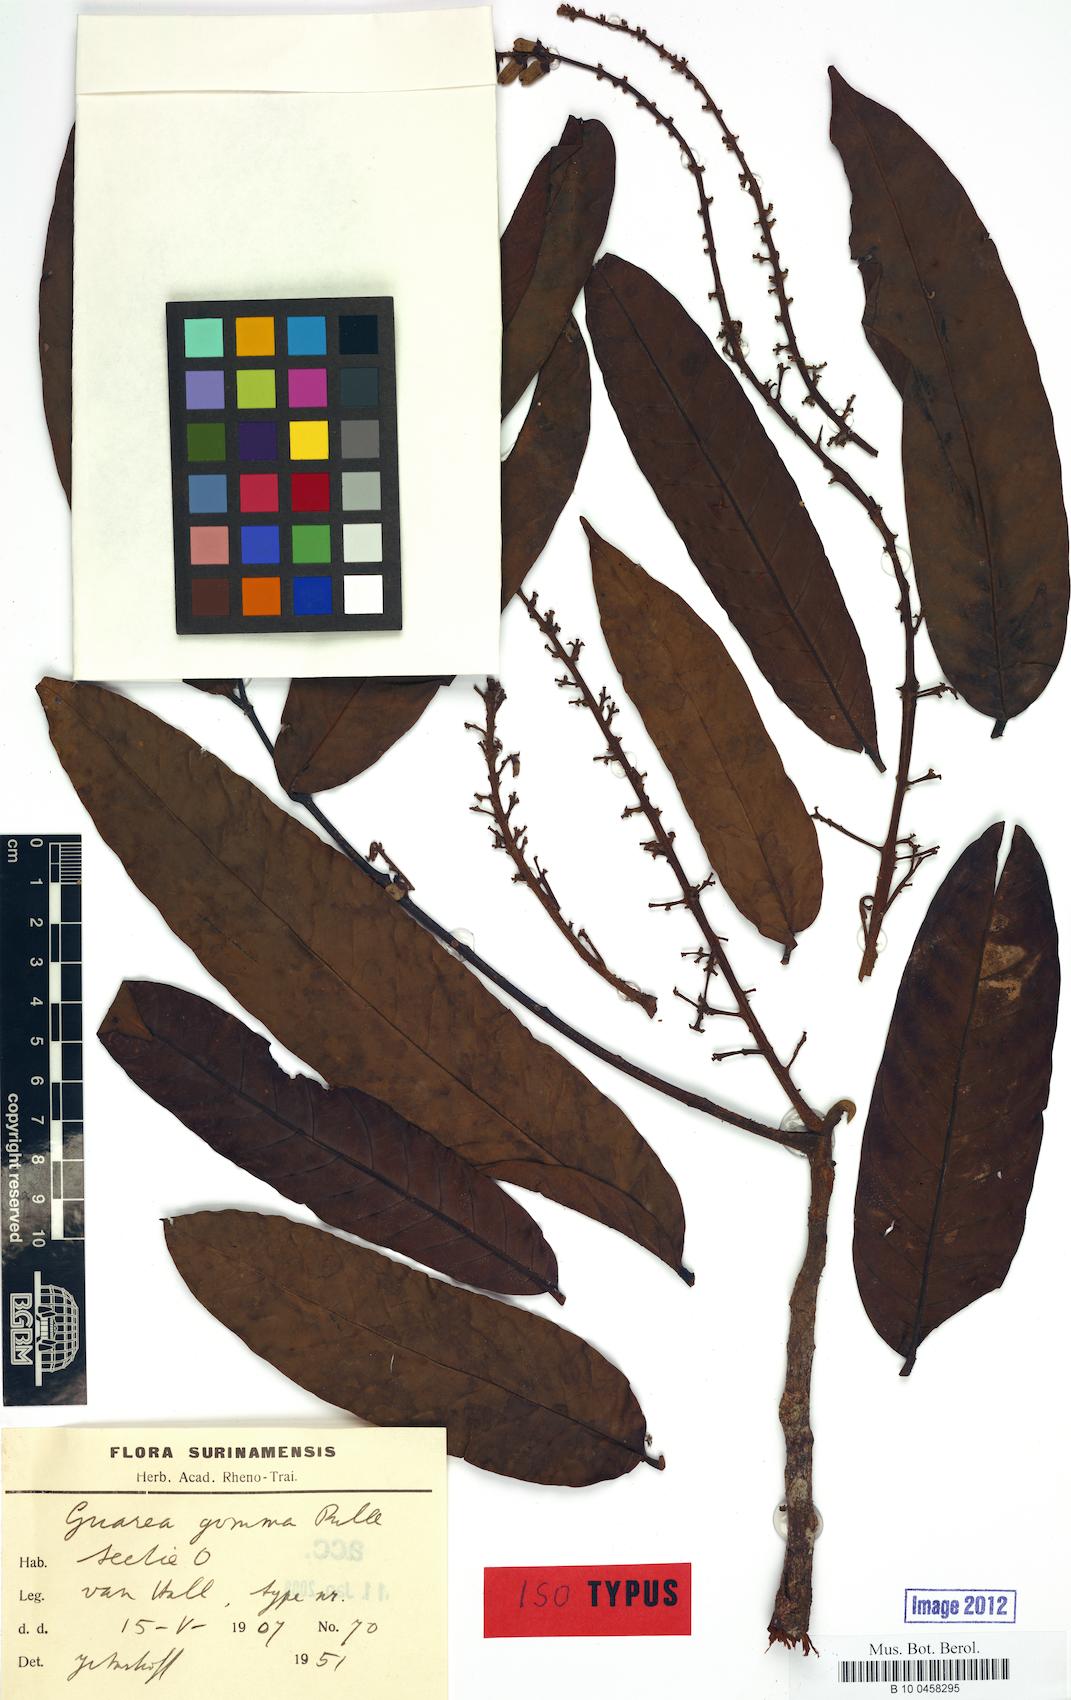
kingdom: Plantae
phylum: Tracheophyta
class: Magnoliopsida
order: Sapindales
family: Meliaceae
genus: Guarea
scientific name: Guarea gomma
